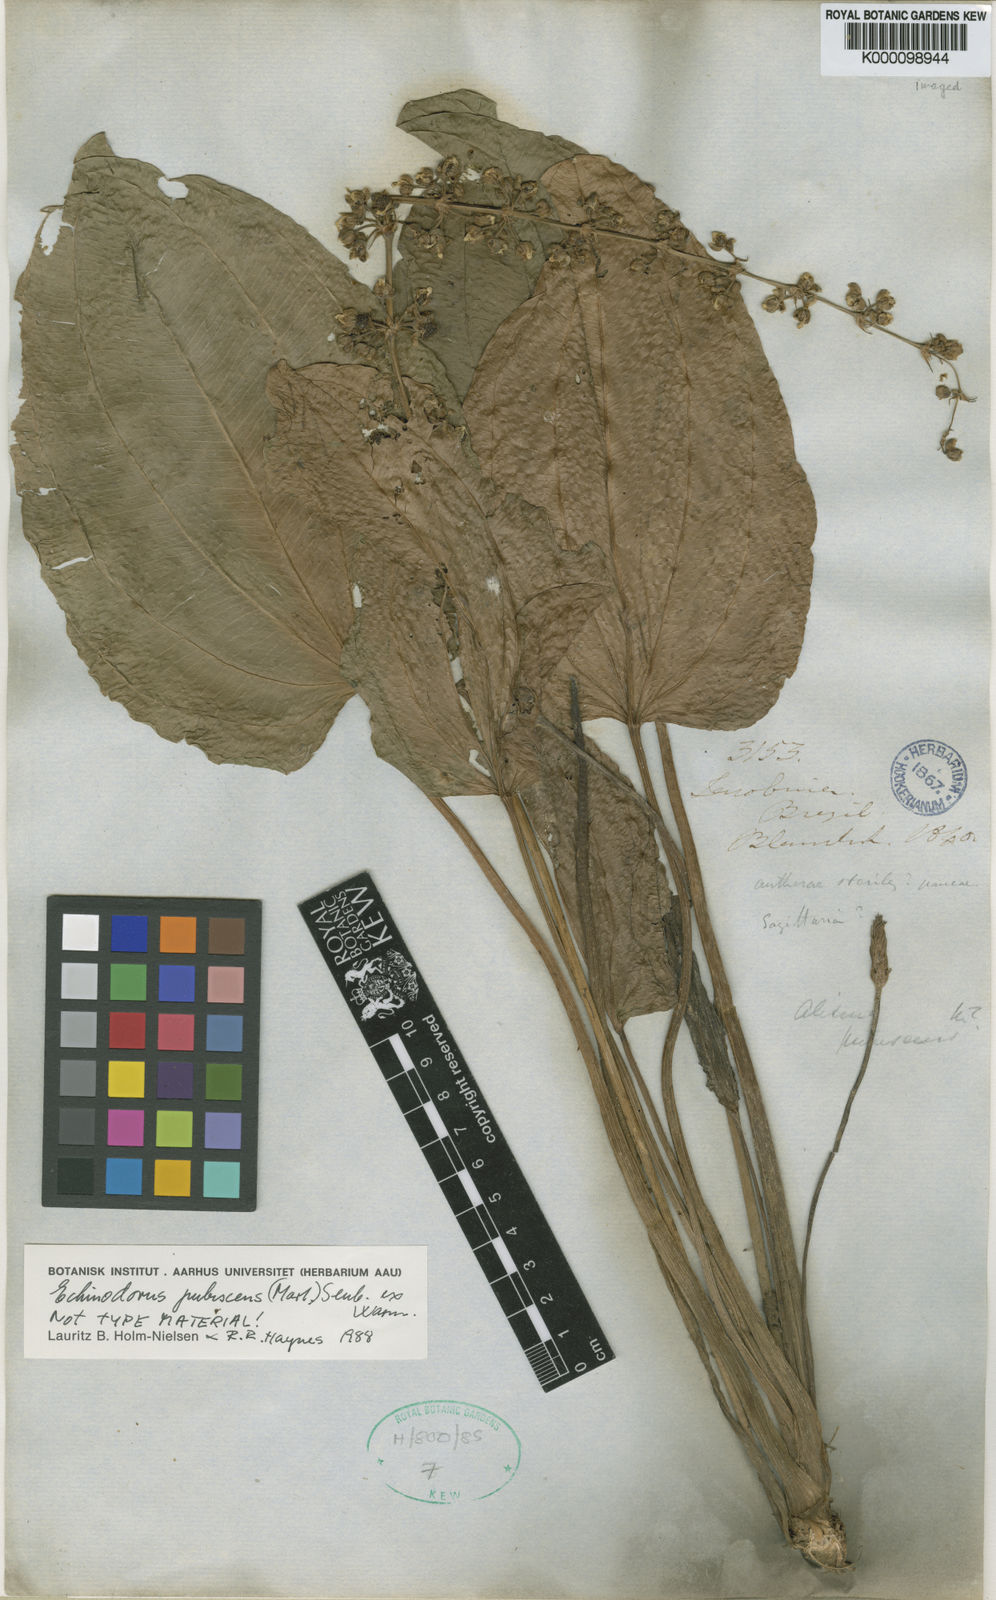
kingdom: Plantae
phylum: Tracheophyta
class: Liliopsida
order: Alismatales
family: Alismataceae
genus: Aquarius
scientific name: Aquarius pubescens
